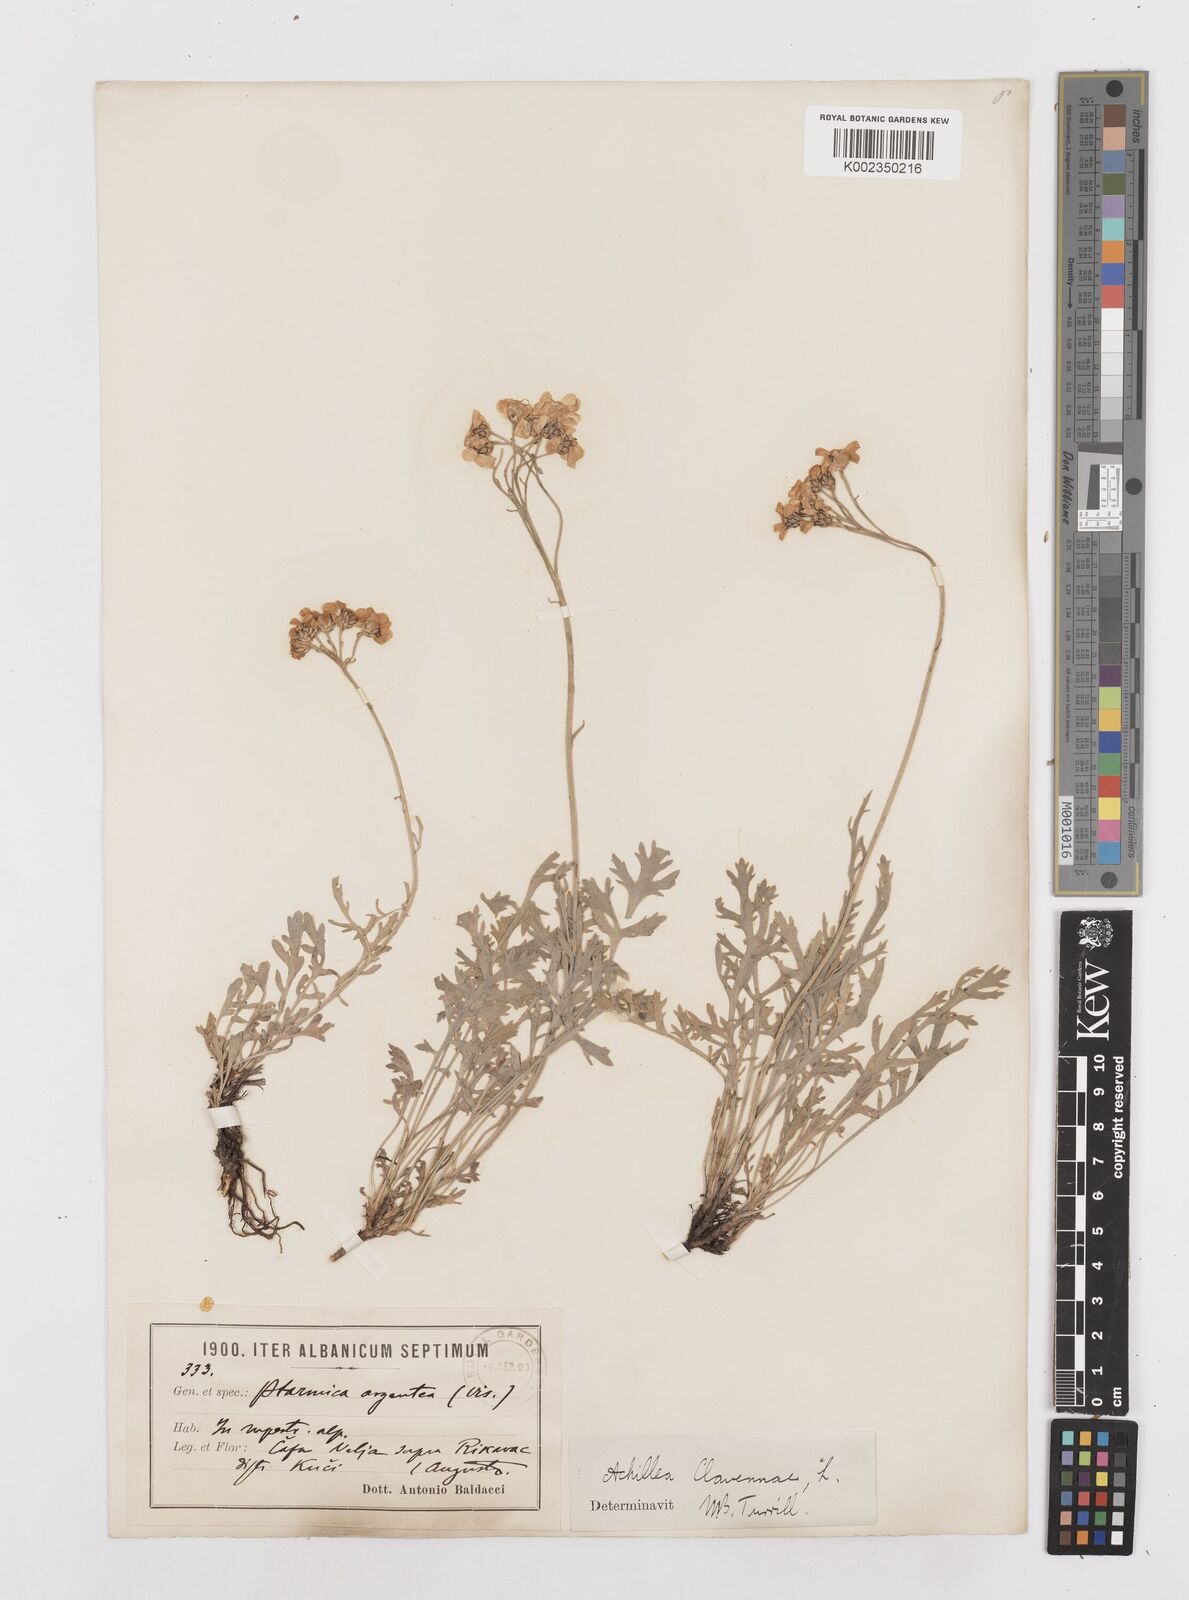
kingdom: Plantae
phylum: Tracheophyta
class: Magnoliopsida
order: Asterales
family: Asteraceae
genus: Achillea
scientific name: Achillea clavennae
